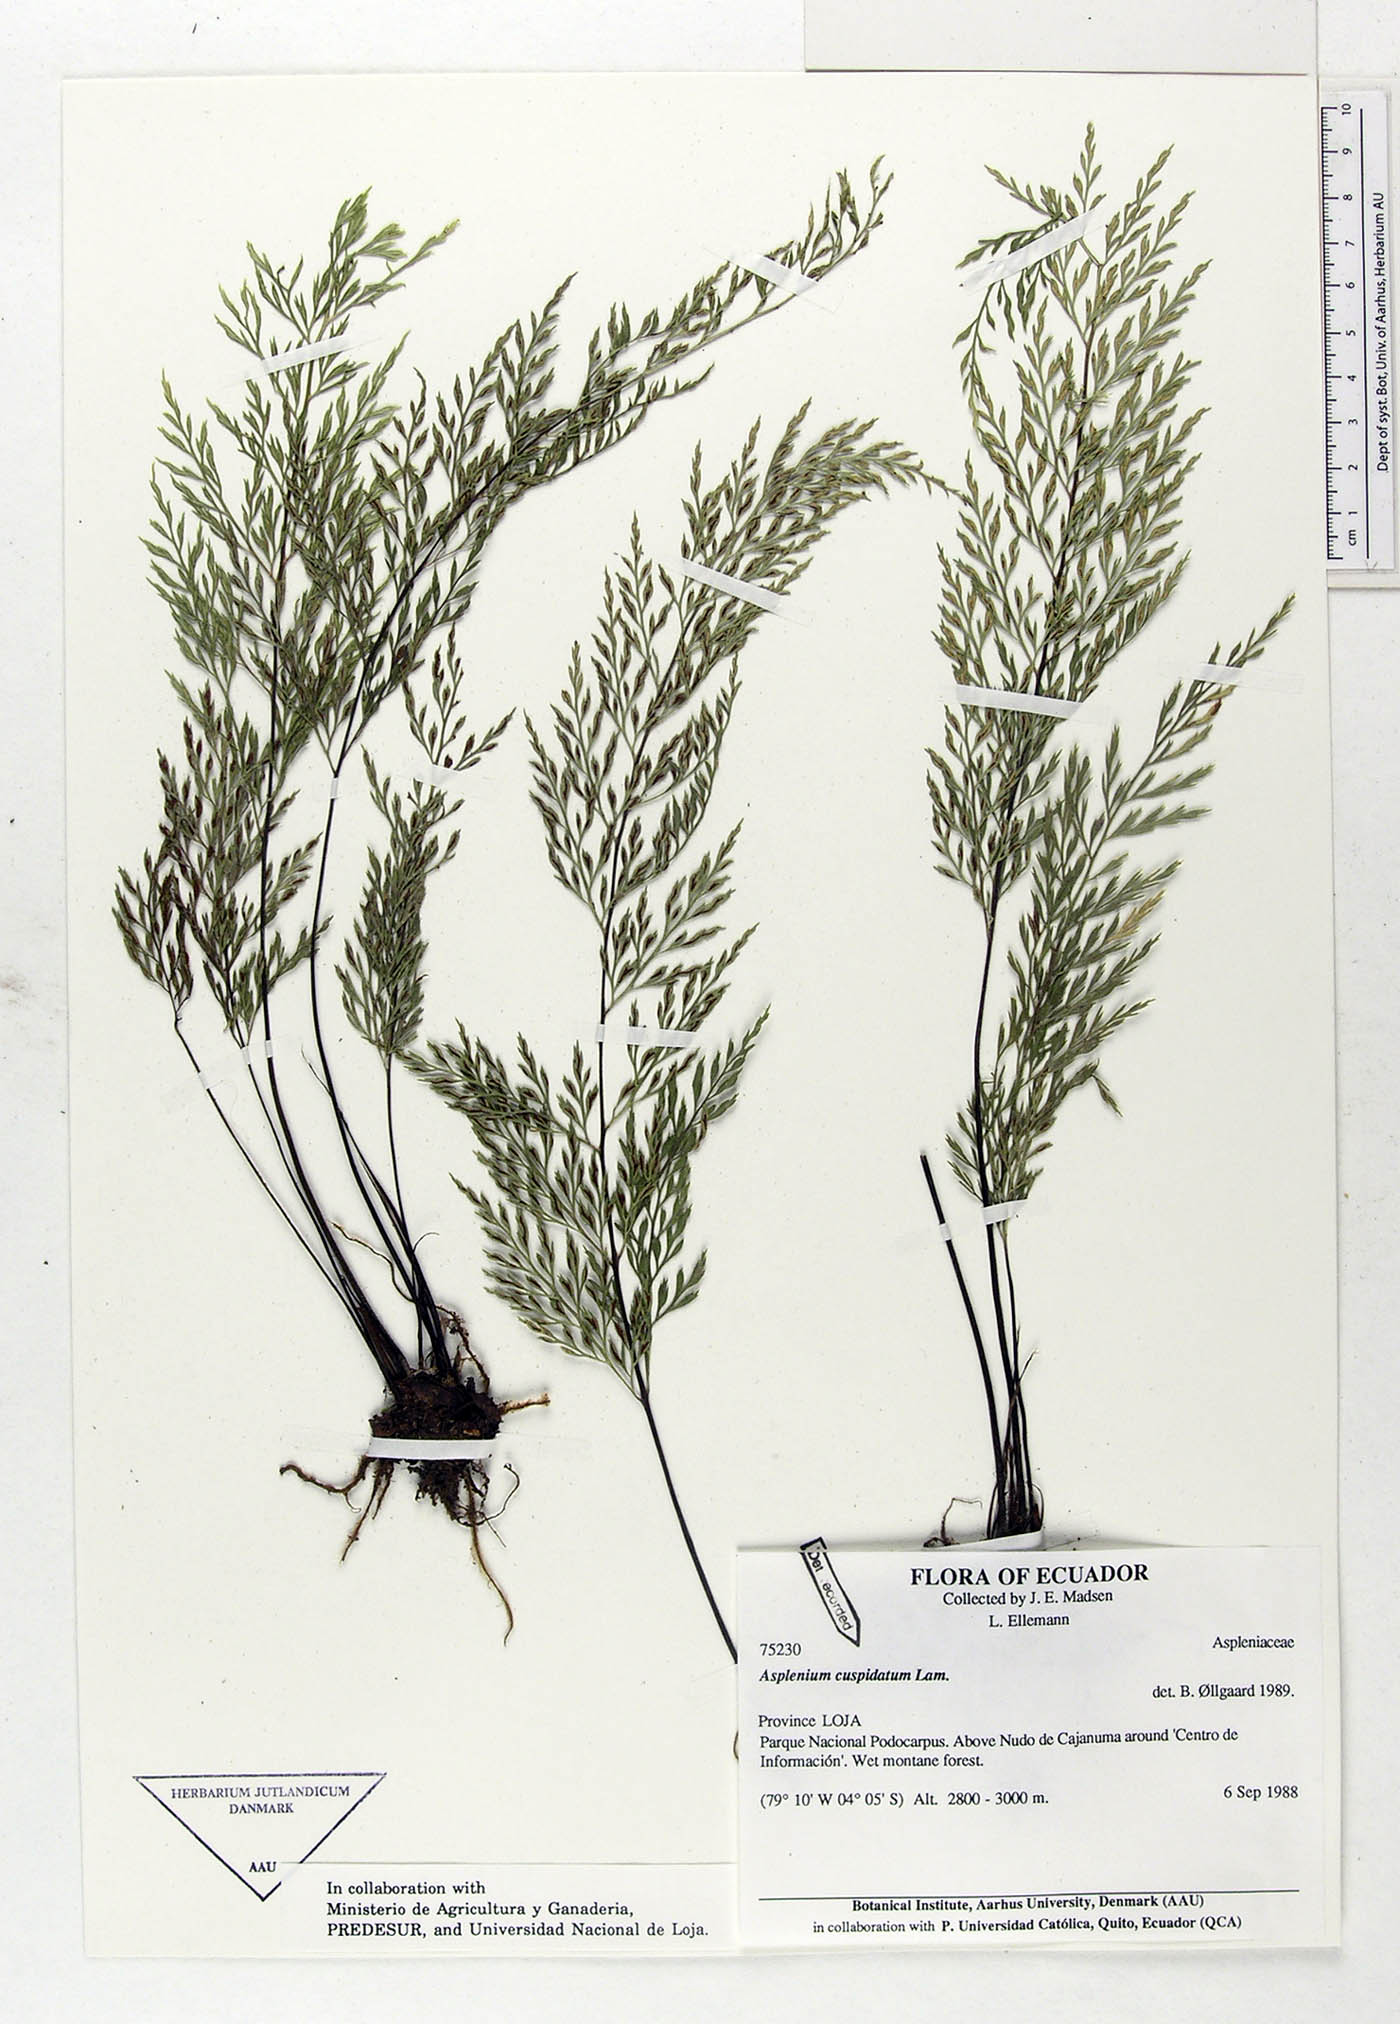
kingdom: Plantae
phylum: Tracheophyta
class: Polypodiopsida
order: Polypodiales
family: Aspleniaceae
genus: Asplenium
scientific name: Asplenium cuspidatum
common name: Eared spleenwort
